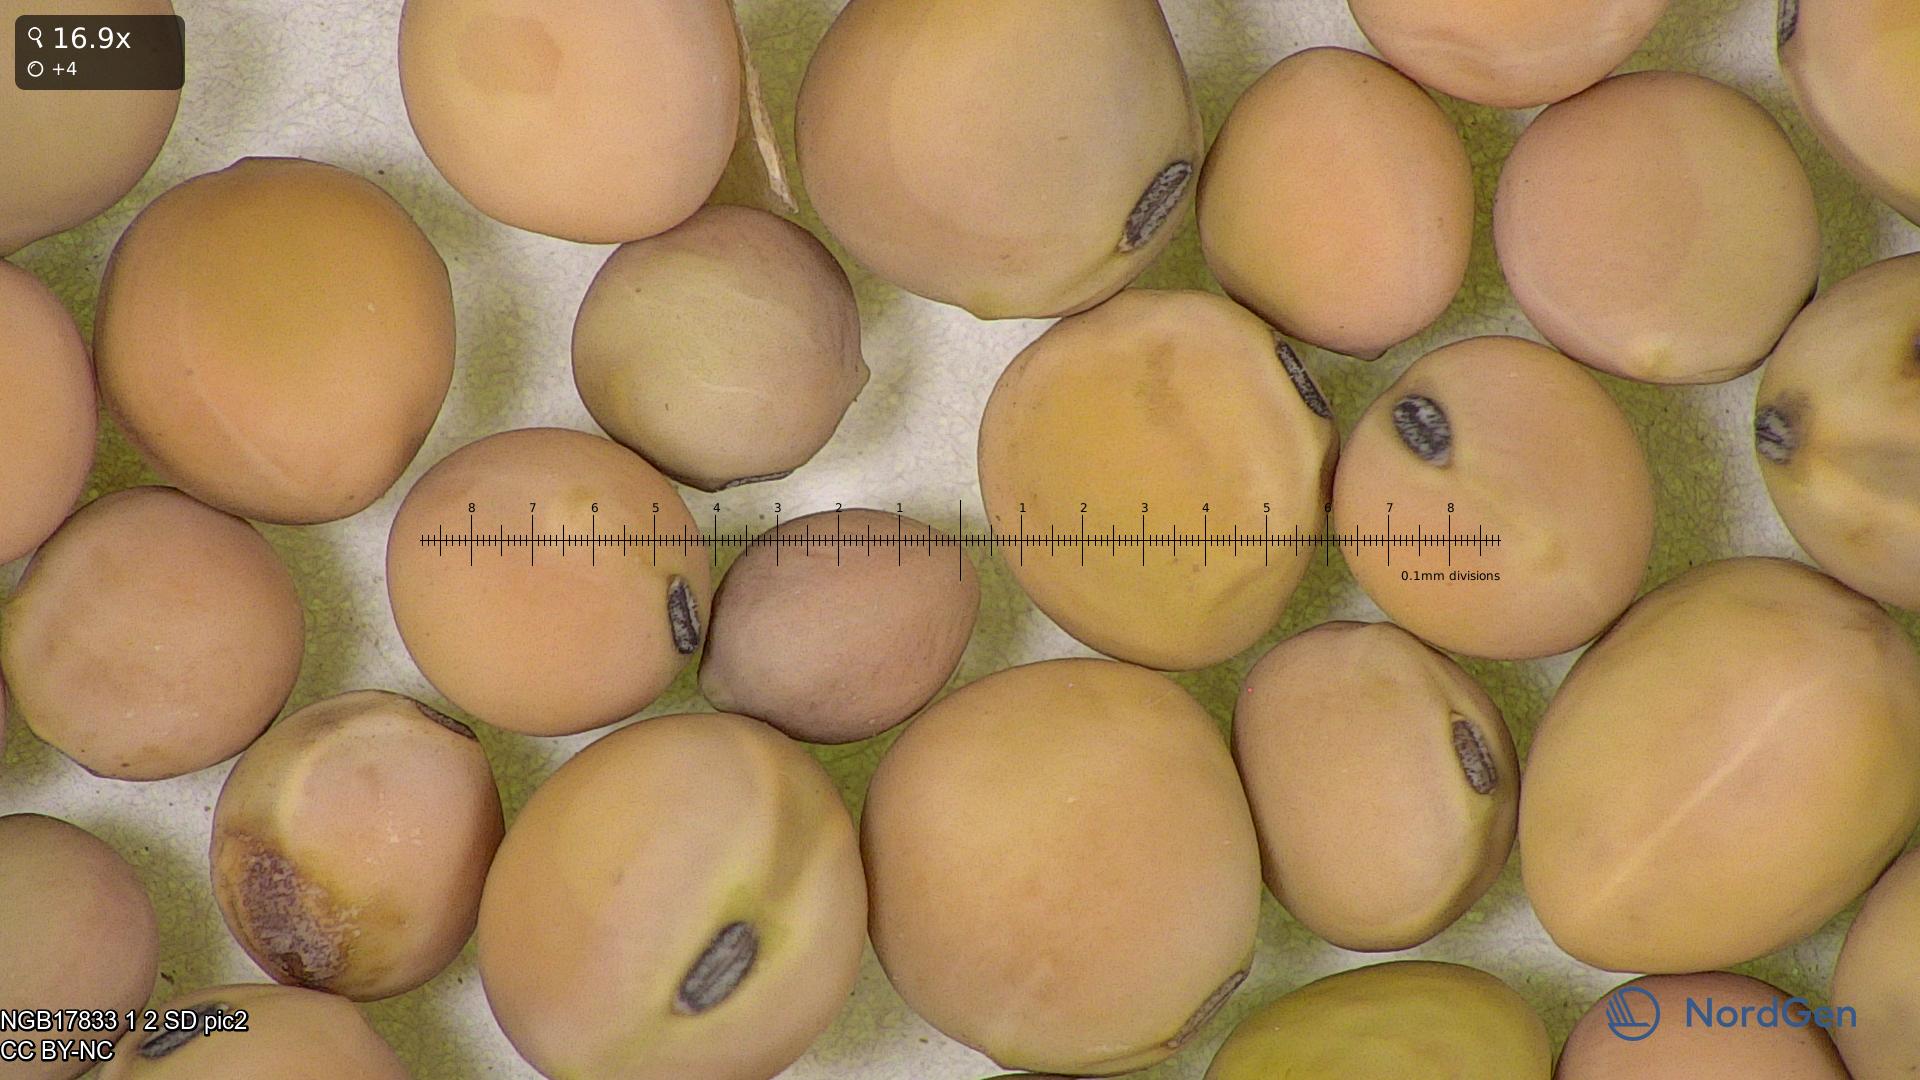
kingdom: Plantae
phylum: Tracheophyta
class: Magnoliopsida
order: Fabales
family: Fabaceae
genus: Lathyrus
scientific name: Lathyrus oleraceus
